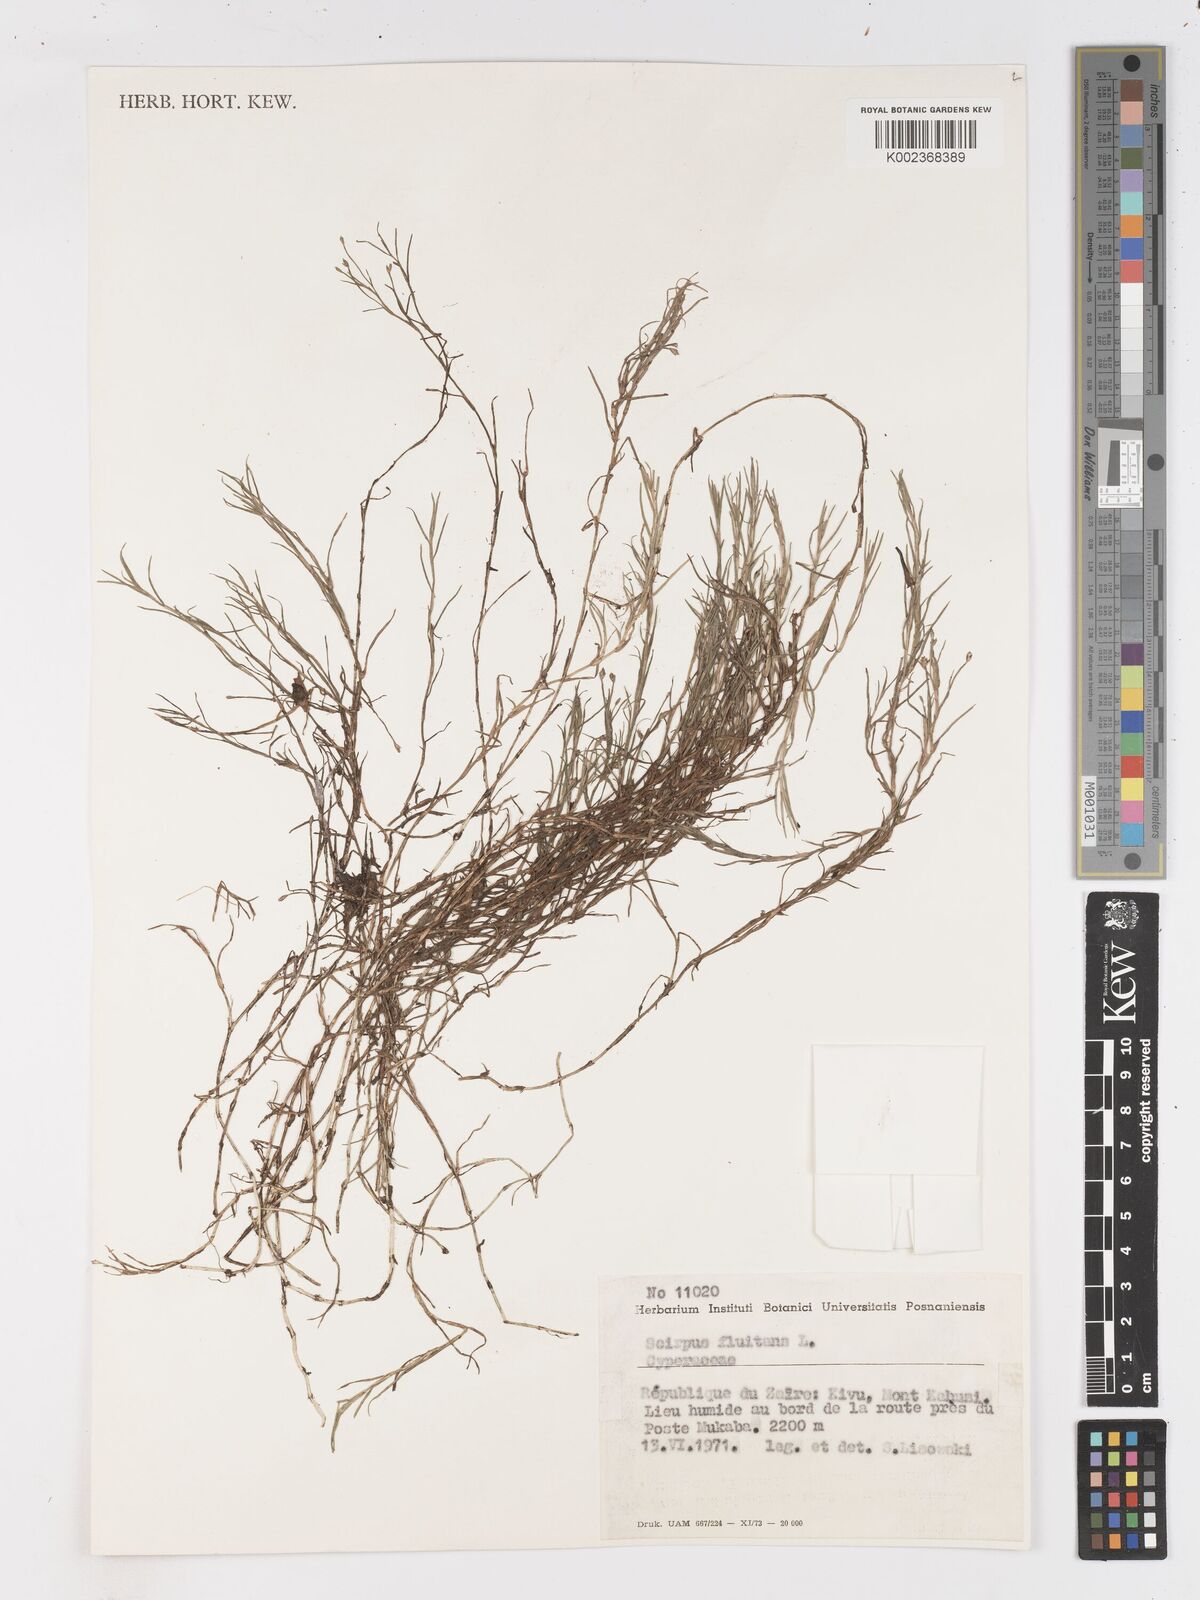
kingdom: Plantae
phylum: Tracheophyta
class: Liliopsida
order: Poales
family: Cyperaceae
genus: Isolepis
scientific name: Isolepis fluitans
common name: Floating club-rush
